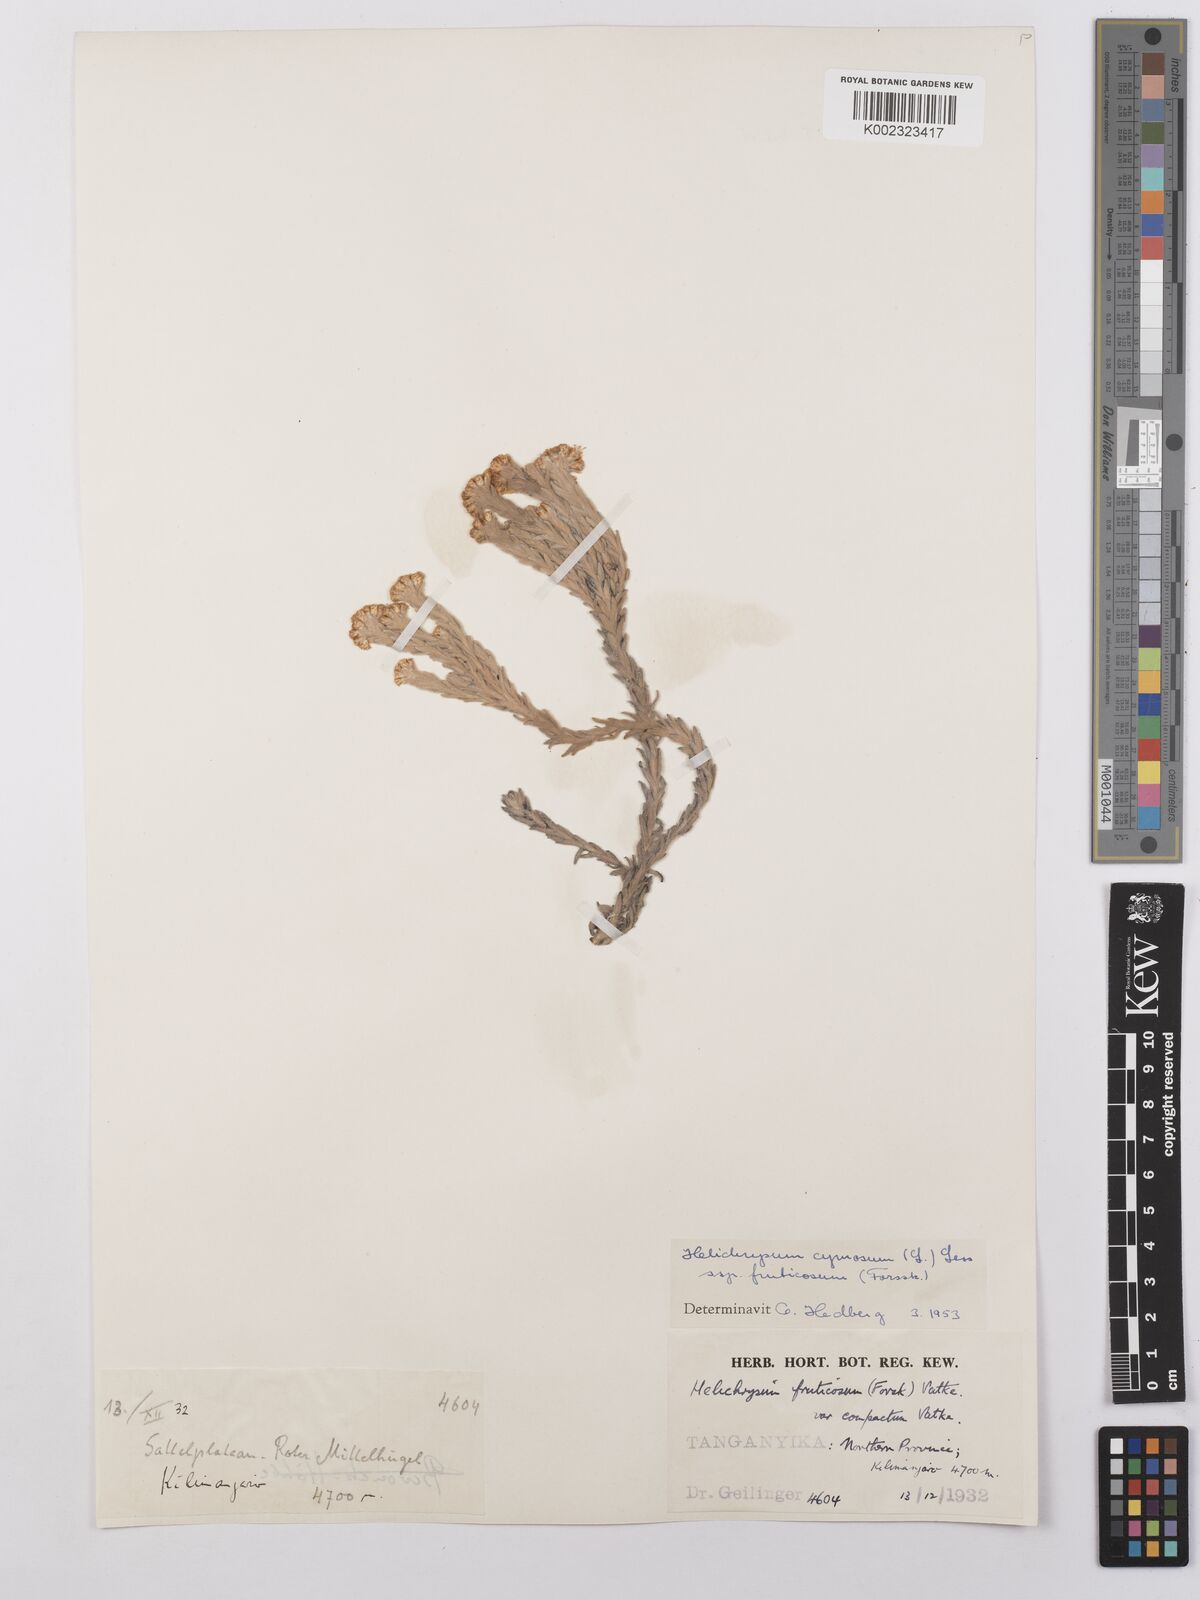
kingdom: Plantae
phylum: Tracheophyta
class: Magnoliopsida
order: Asterales
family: Asteraceae
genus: Helichrysum
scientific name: Helichrysum forskahlii
